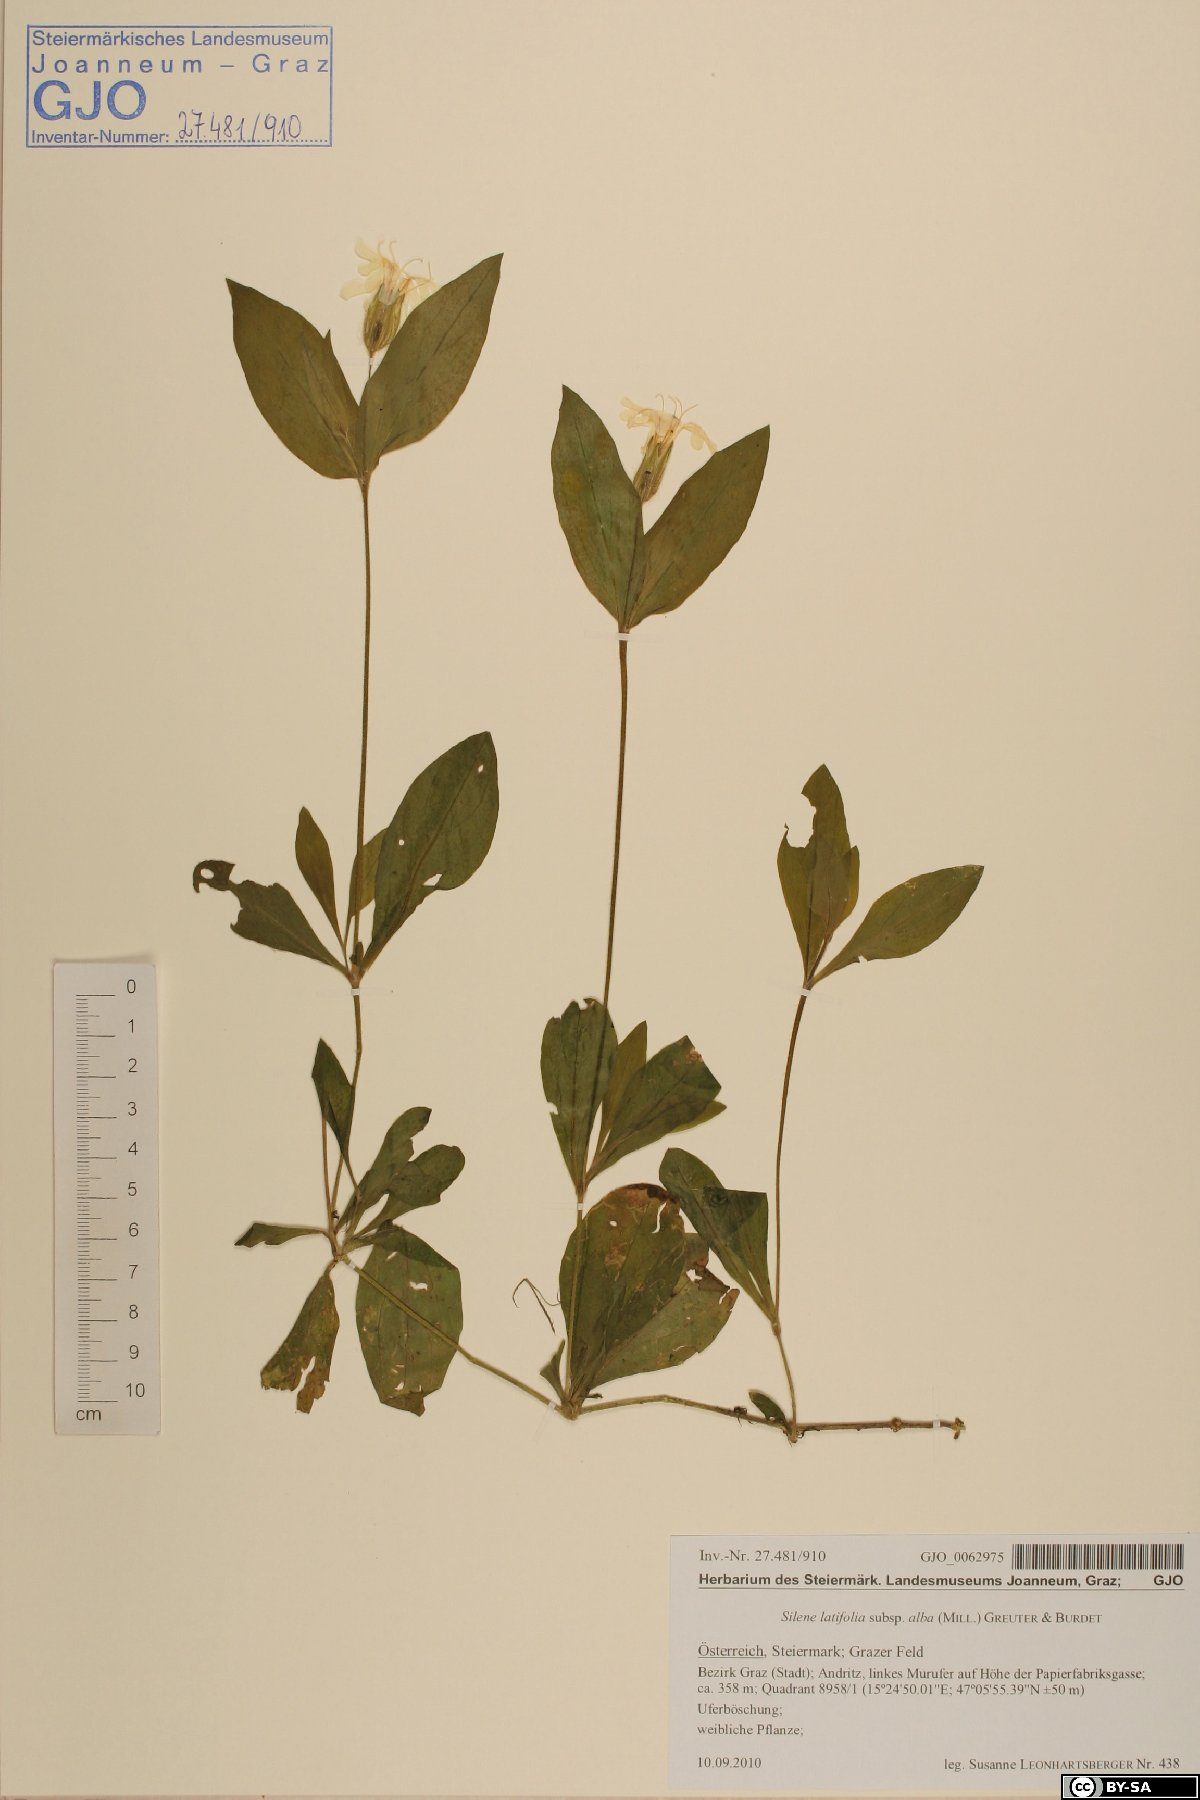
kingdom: Plantae
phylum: Tracheophyta
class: Magnoliopsida
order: Caryophyllales
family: Caryophyllaceae
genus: Silene
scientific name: Silene latifolia
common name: White campion
